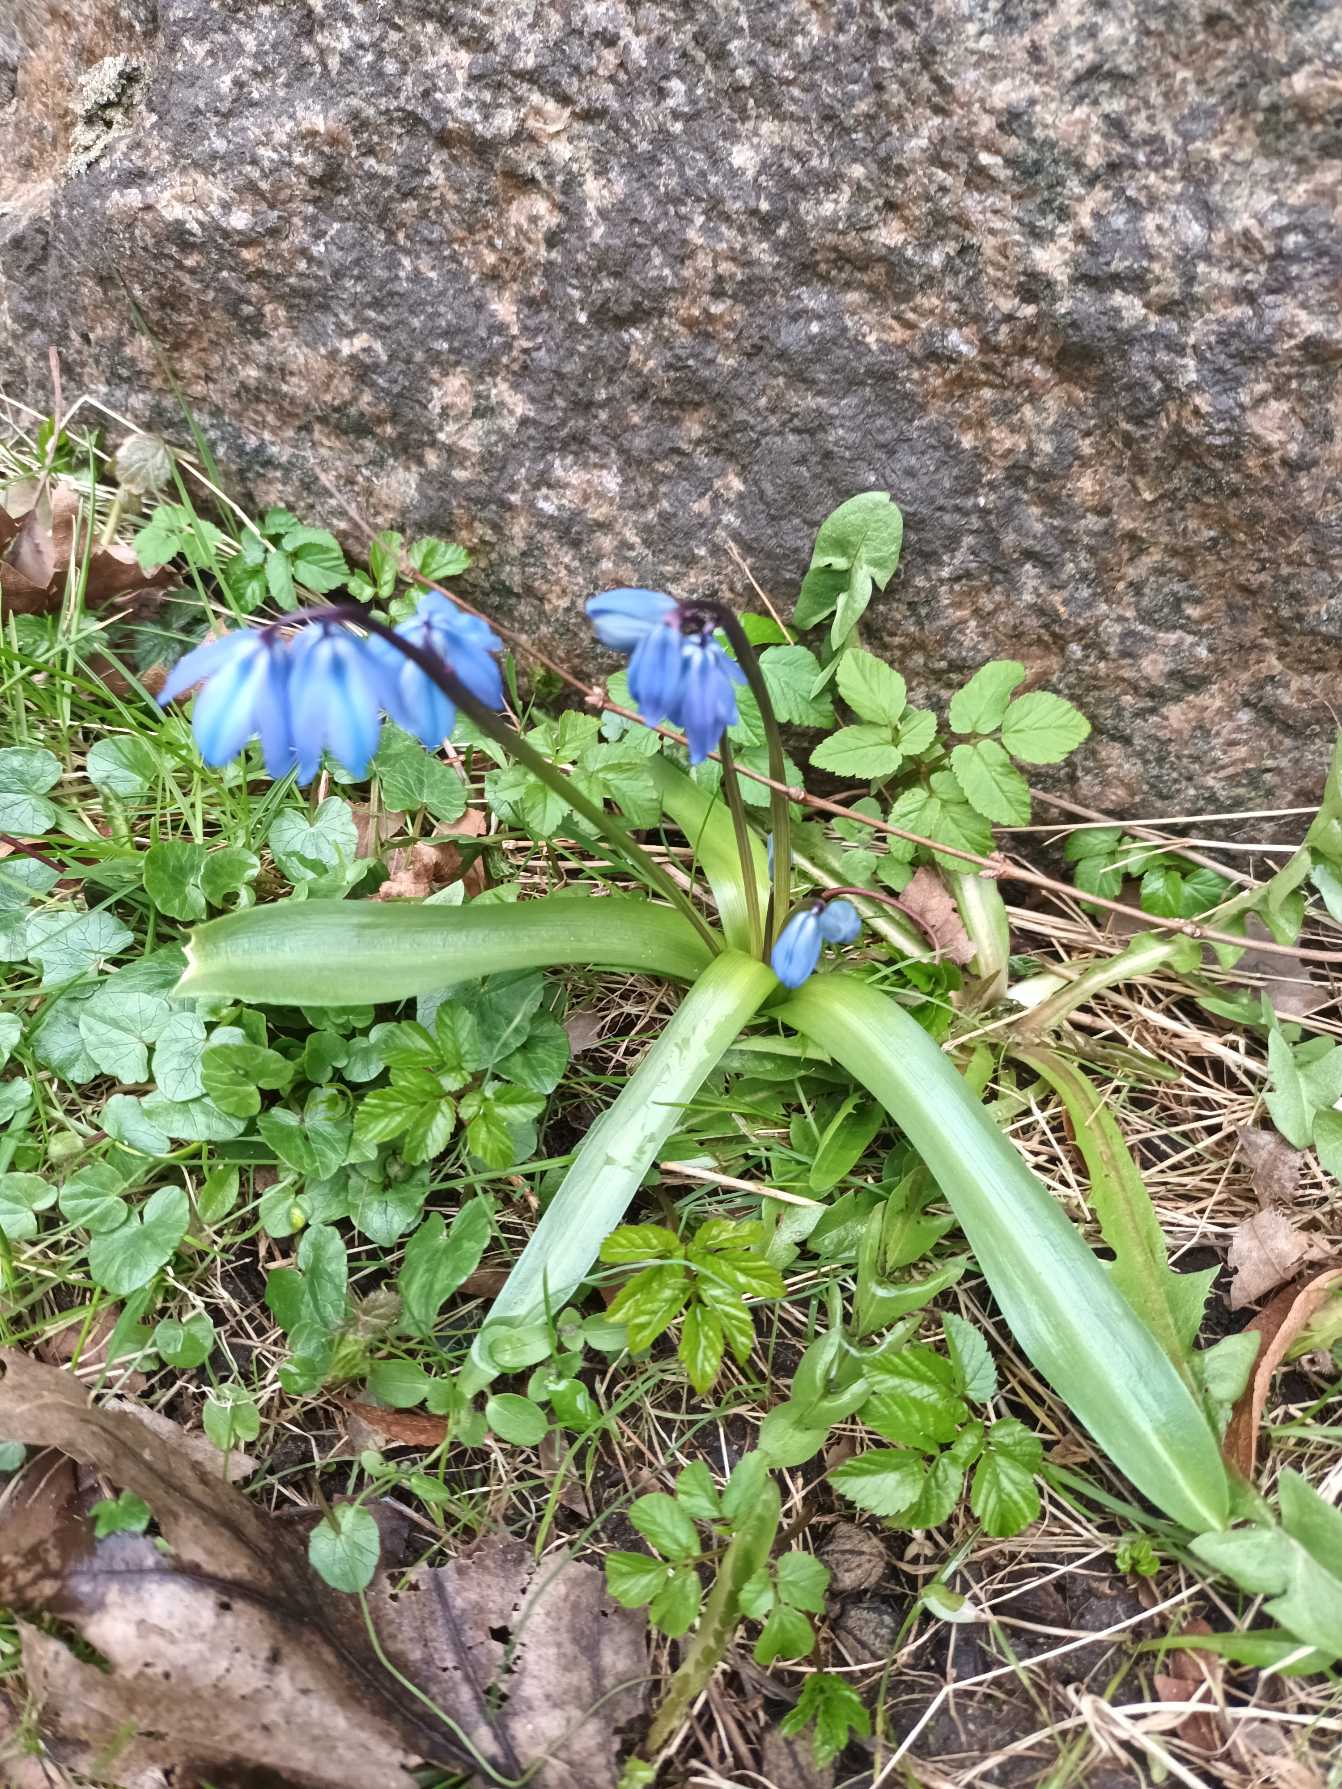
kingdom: Plantae
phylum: Tracheophyta
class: Liliopsida
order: Asparagales
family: Asparagaceae
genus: Scilla
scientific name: Scilla siberica
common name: Russisk skilla
